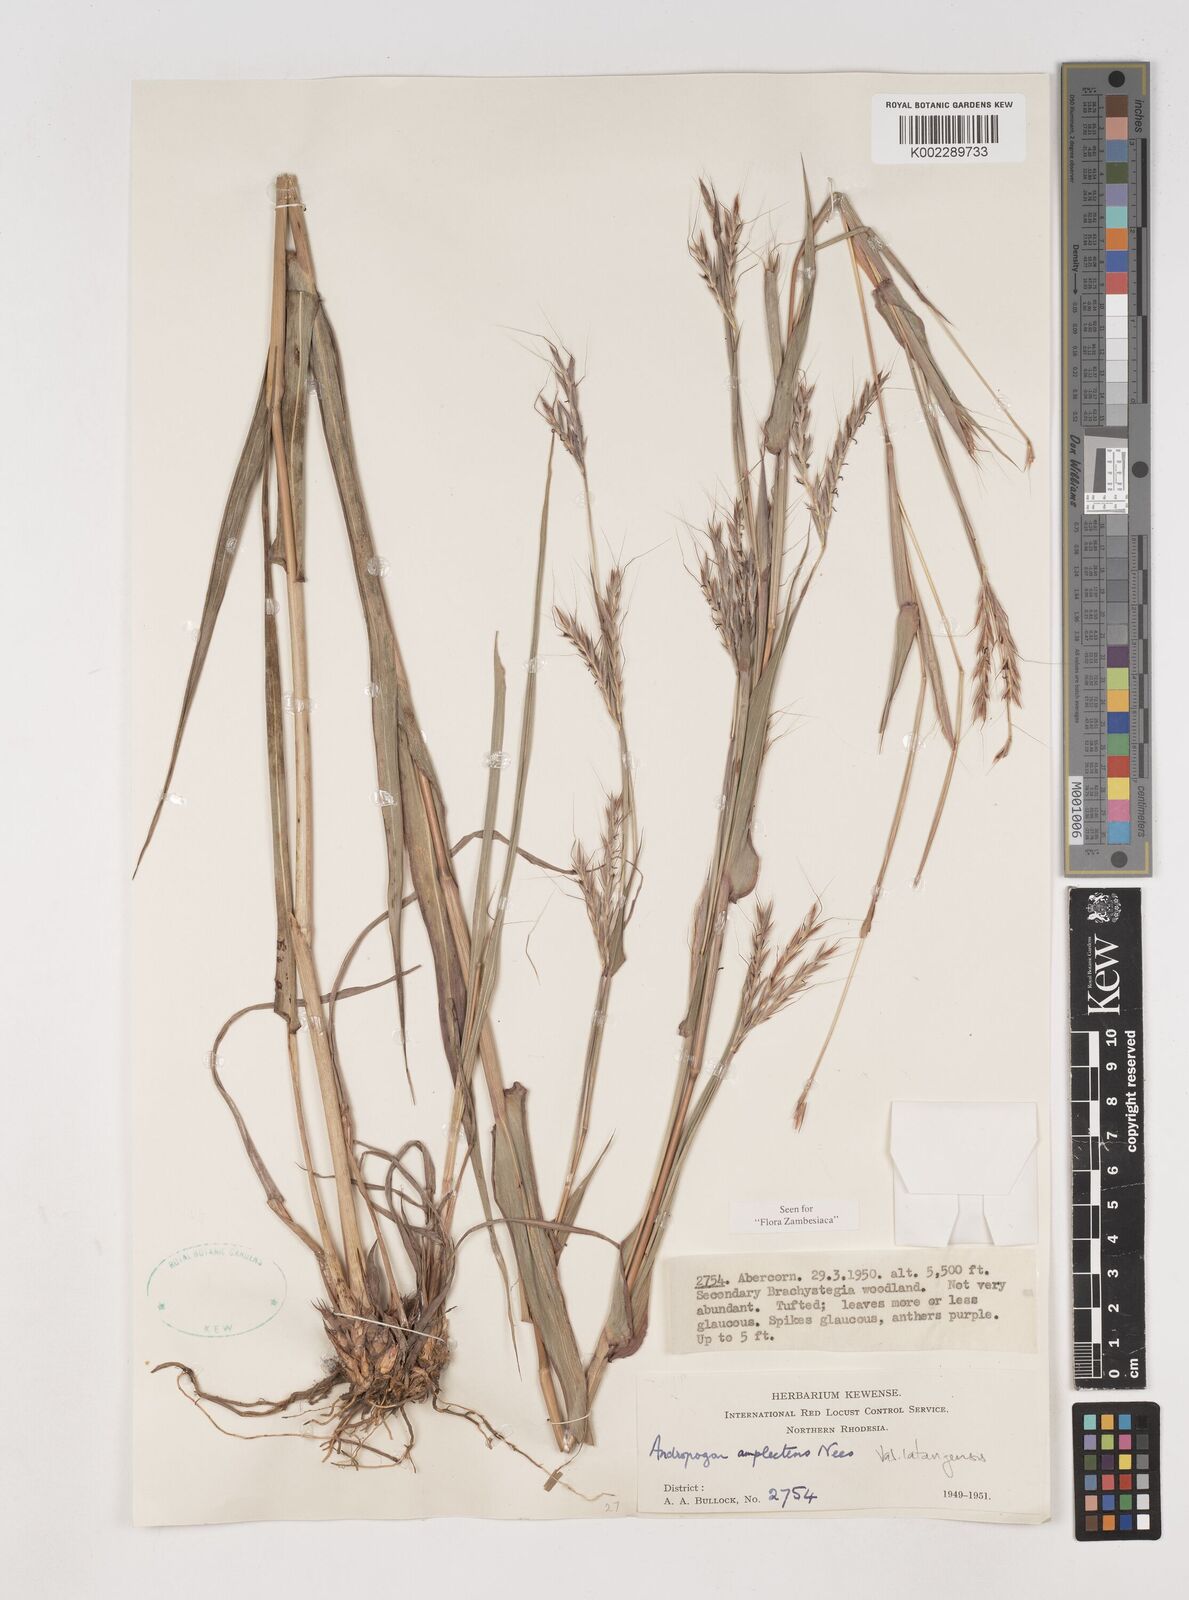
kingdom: Plantae
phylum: Tracheophyta
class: Liliopsida
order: Poales
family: Poaceae
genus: Diheteropogon
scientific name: Diheteropogon amplectens
